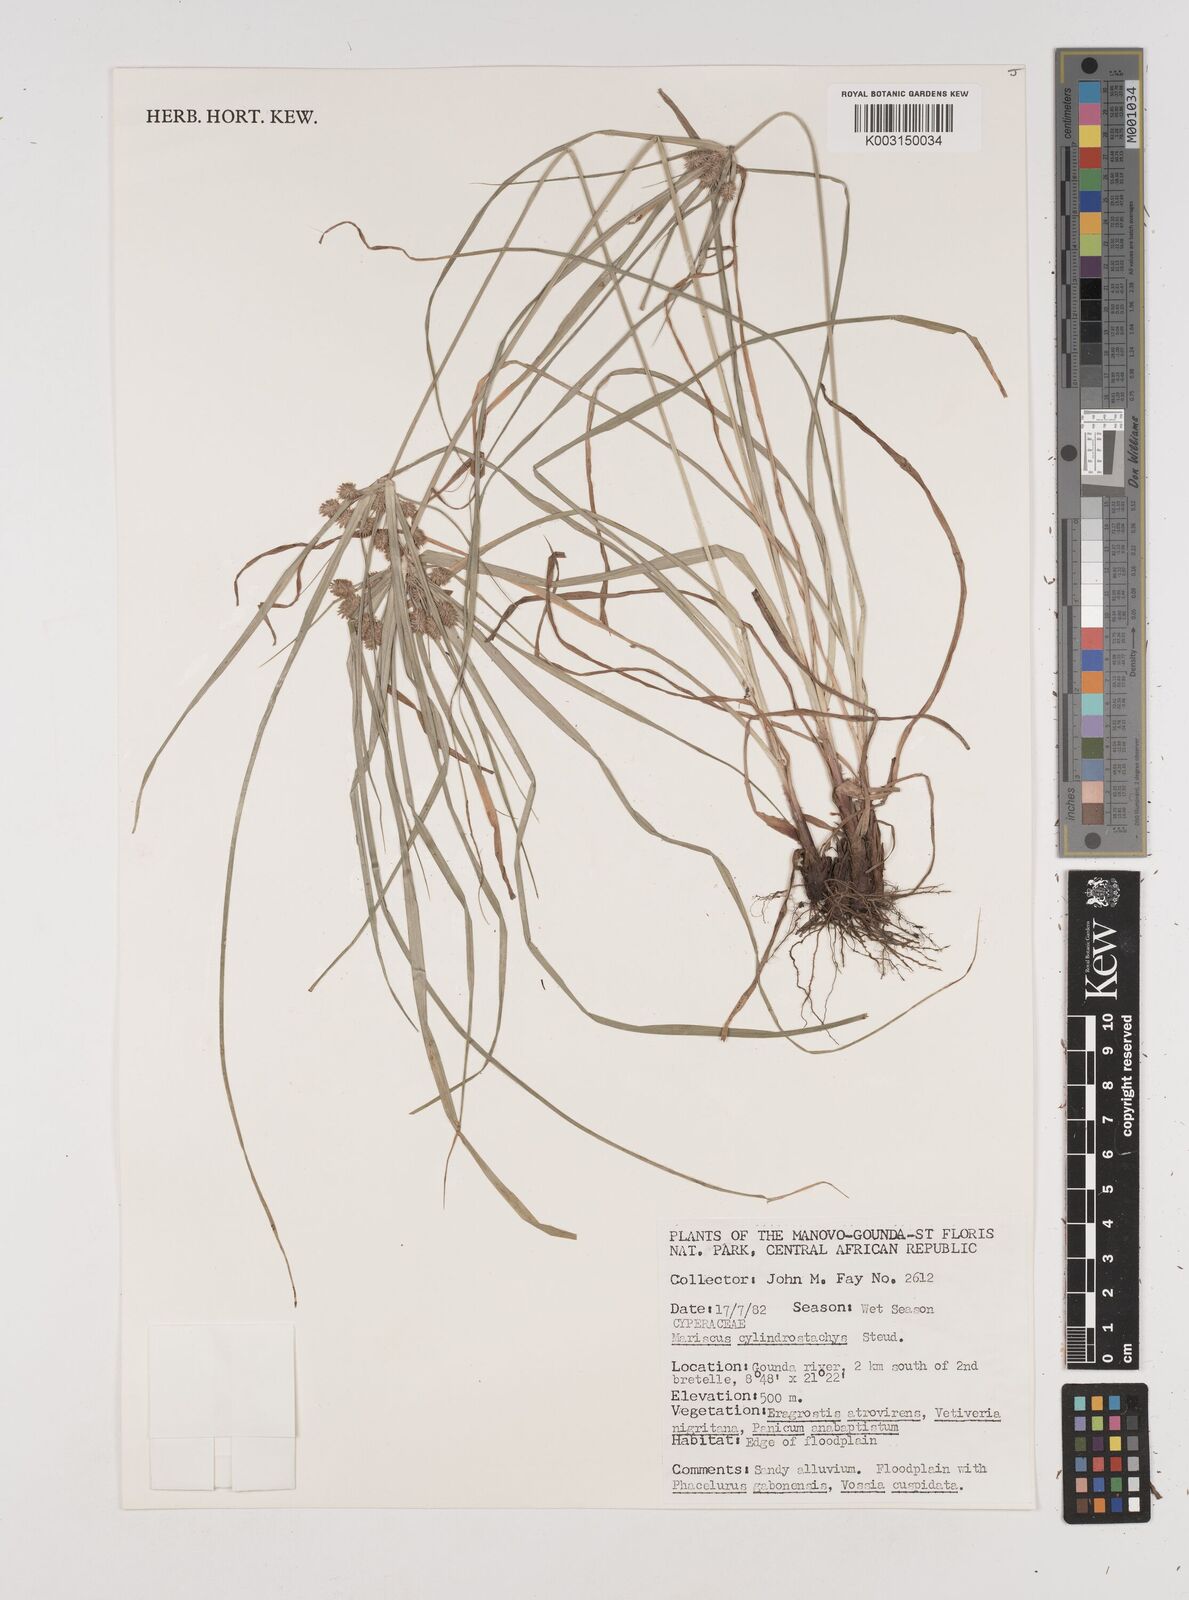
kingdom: Plantae
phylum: Tracheophyta
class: Liliopsida
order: Poales
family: Cyperaceae
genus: Cyperus
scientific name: Cyperus cyperoides
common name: Pacific island flat sedge
